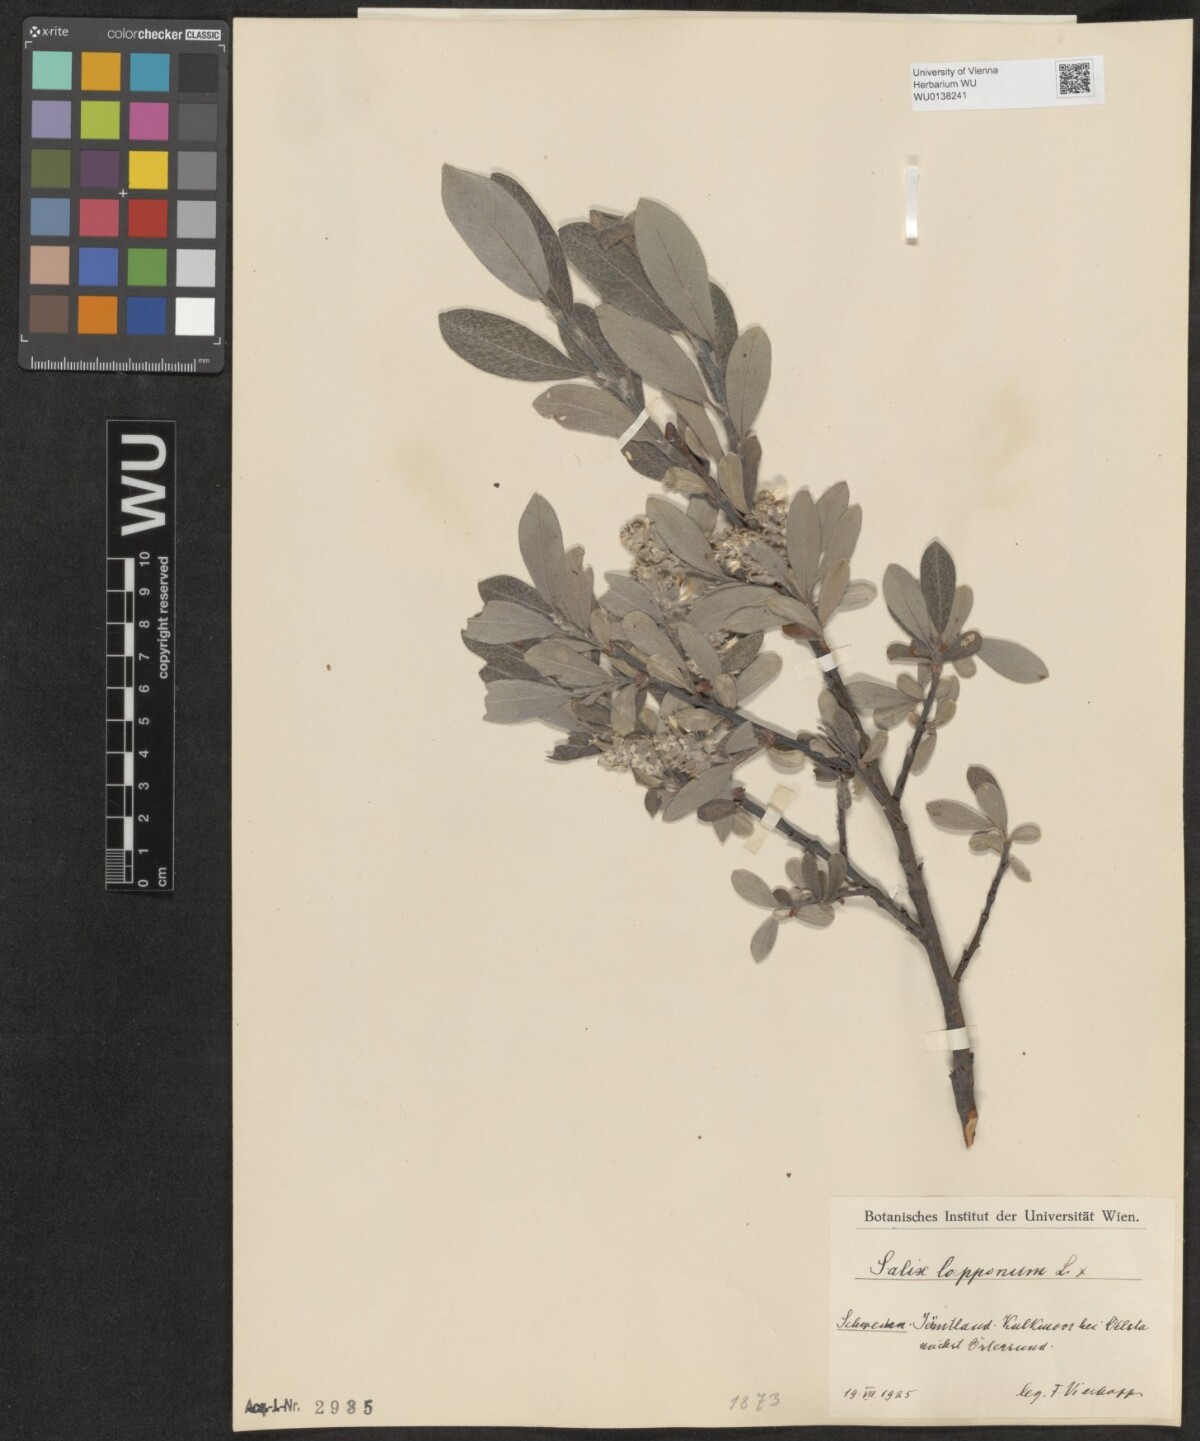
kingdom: Plantae
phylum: Tracheophyta
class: Magnoliopsida
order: Malpighiales
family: Salicaceae
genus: Salix
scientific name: Salix lapponum
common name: Downy willow
